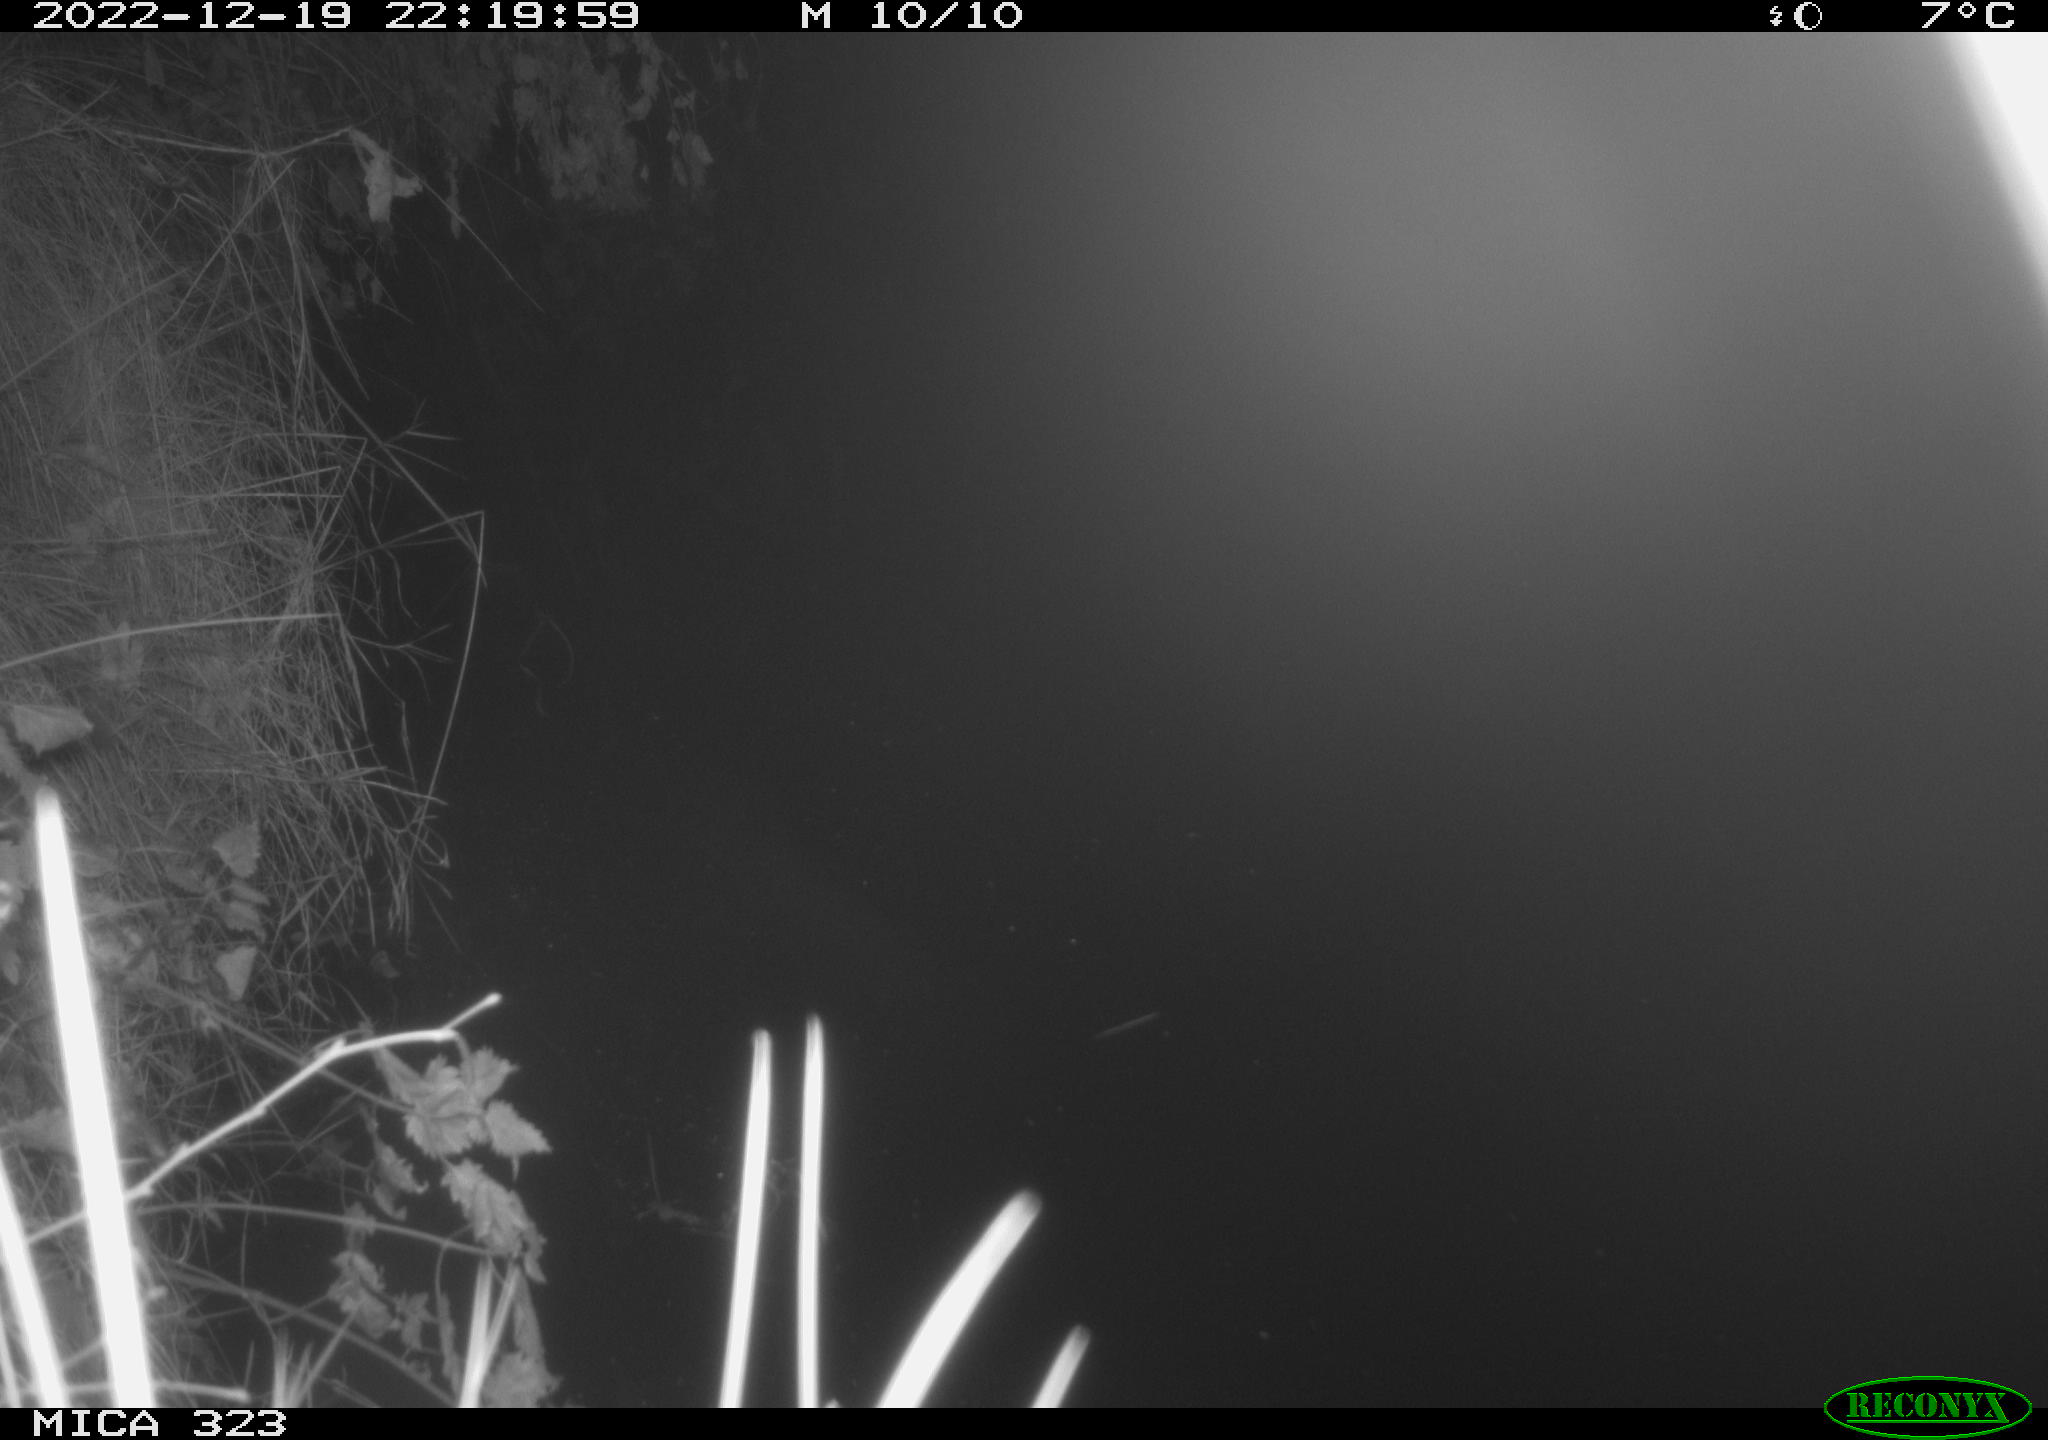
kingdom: Animalia
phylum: Chordata
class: Mammalia
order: Rodentia
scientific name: Rodentia
